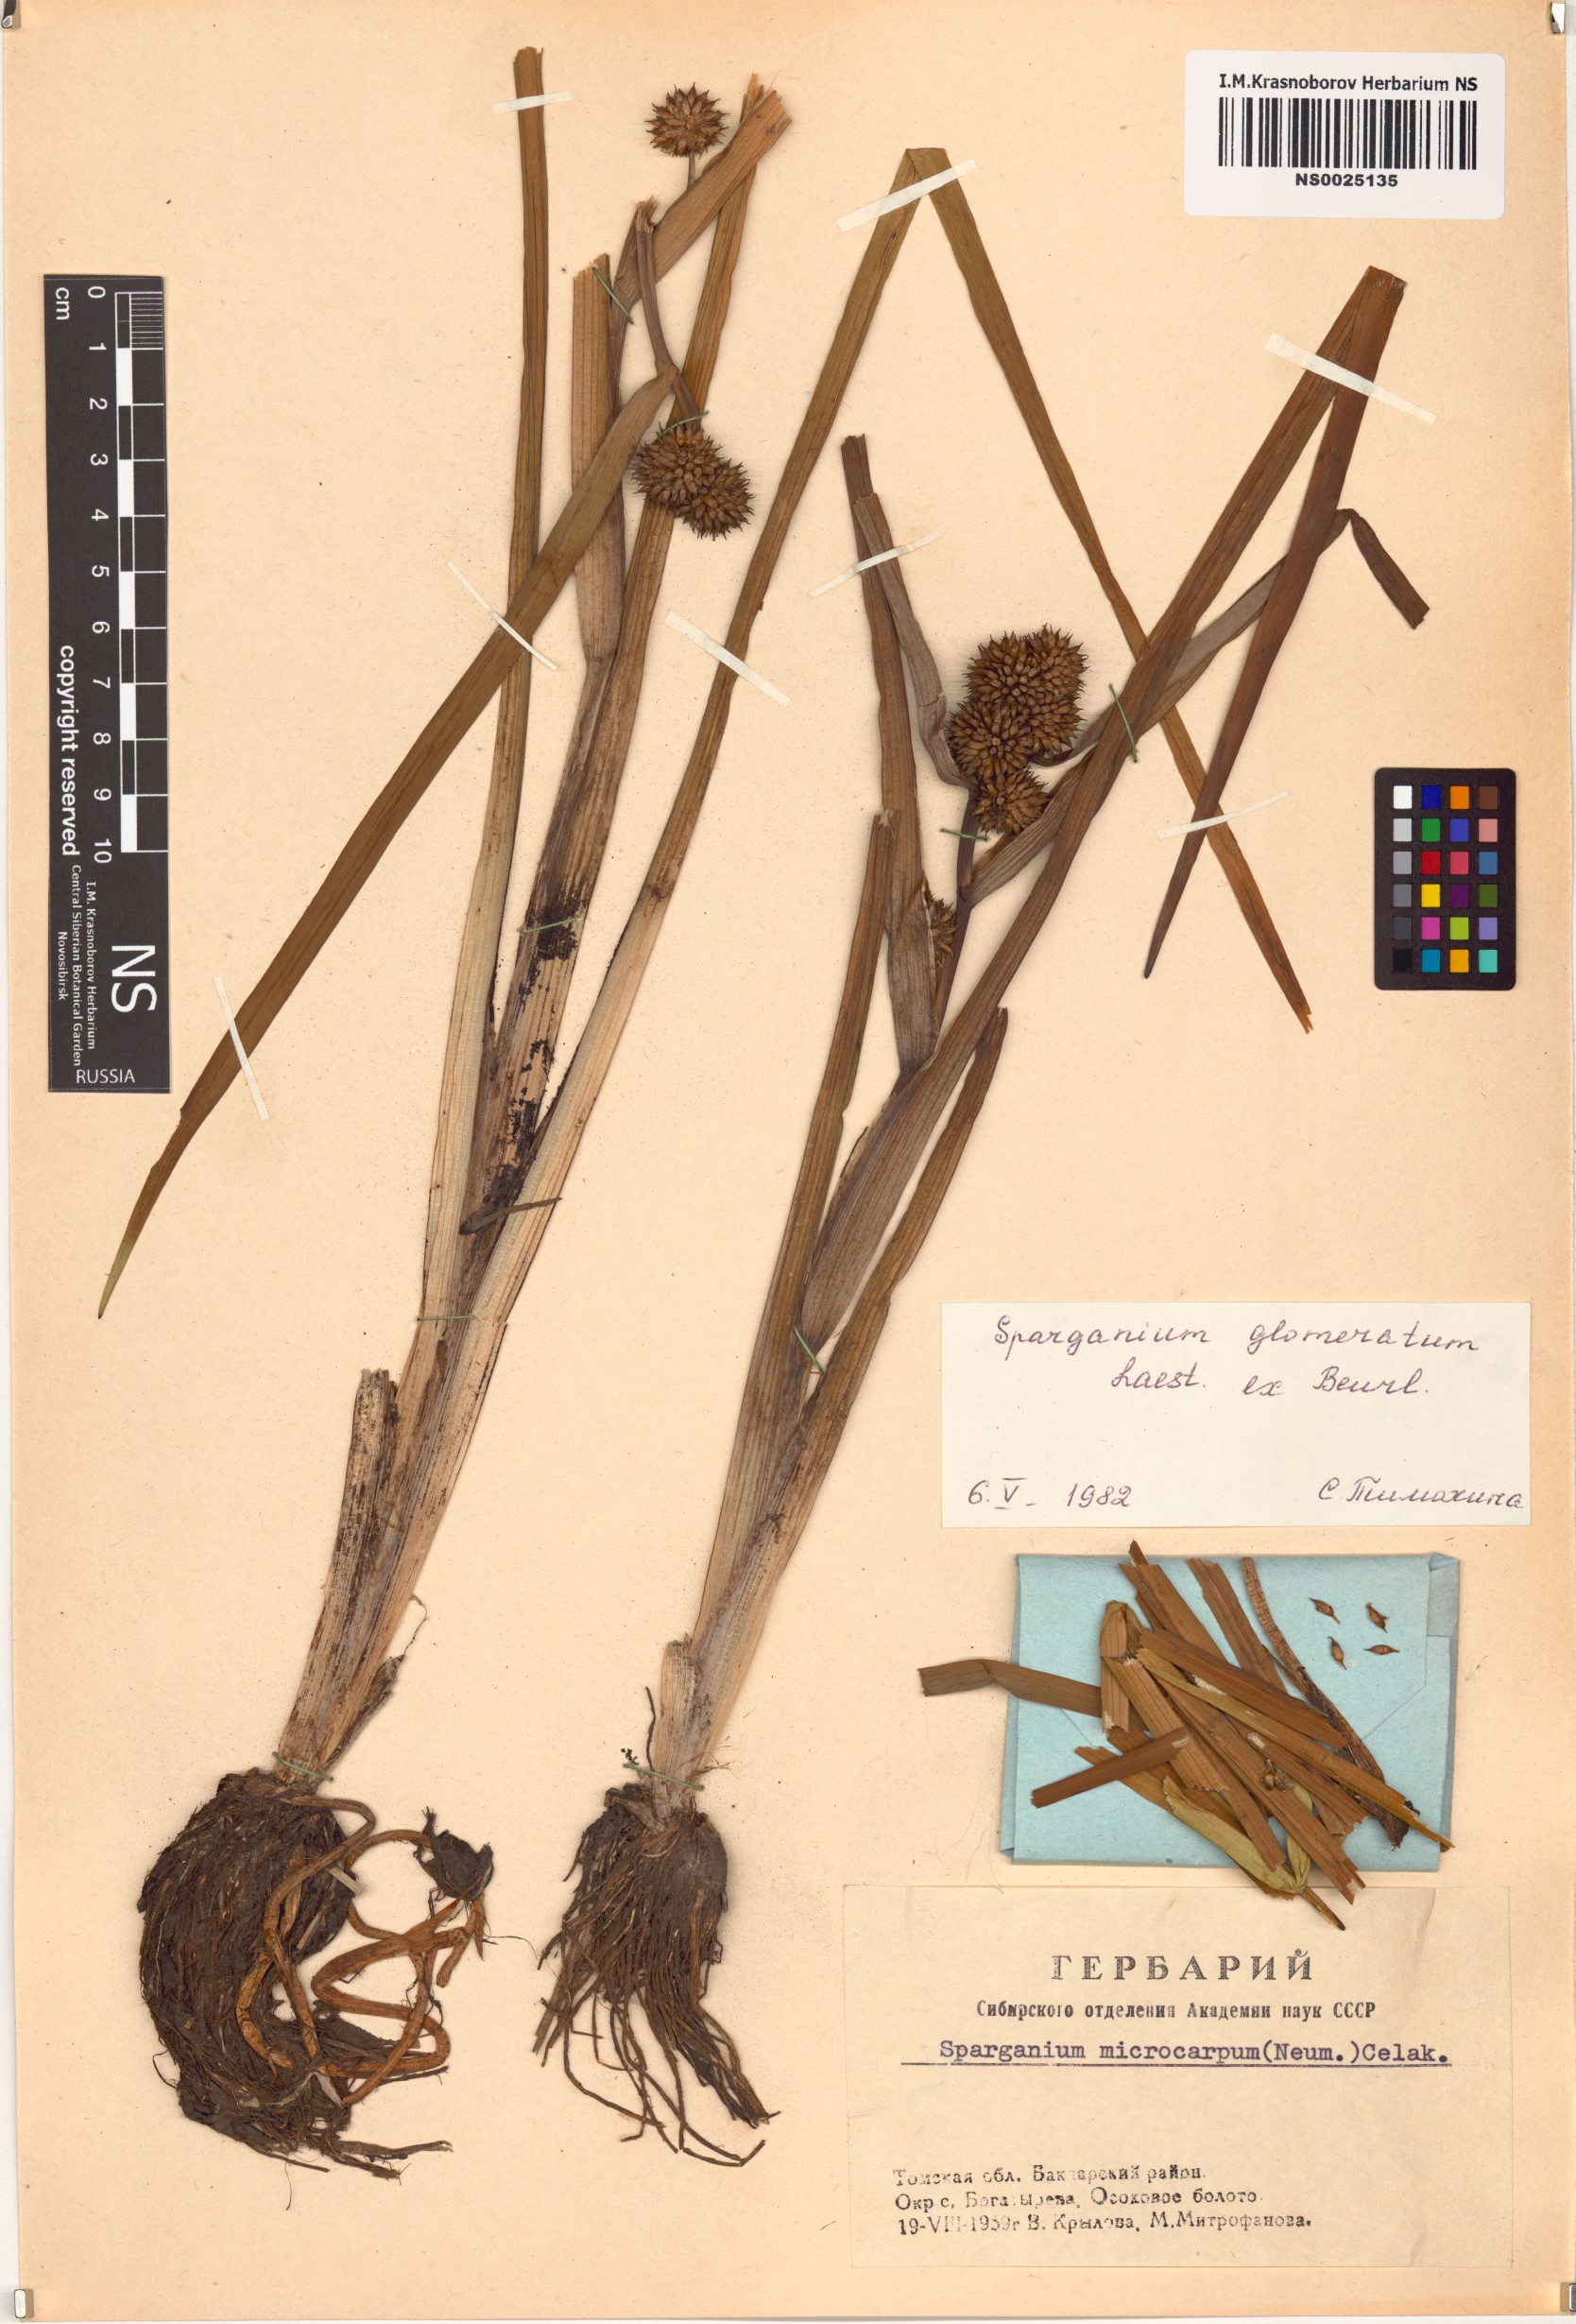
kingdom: Plantae
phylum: Tracheophyta
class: Liliopsida
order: Poales
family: Typhaceae
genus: Sparganium
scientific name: Sparganium glomeratum
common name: Clustered burreed
